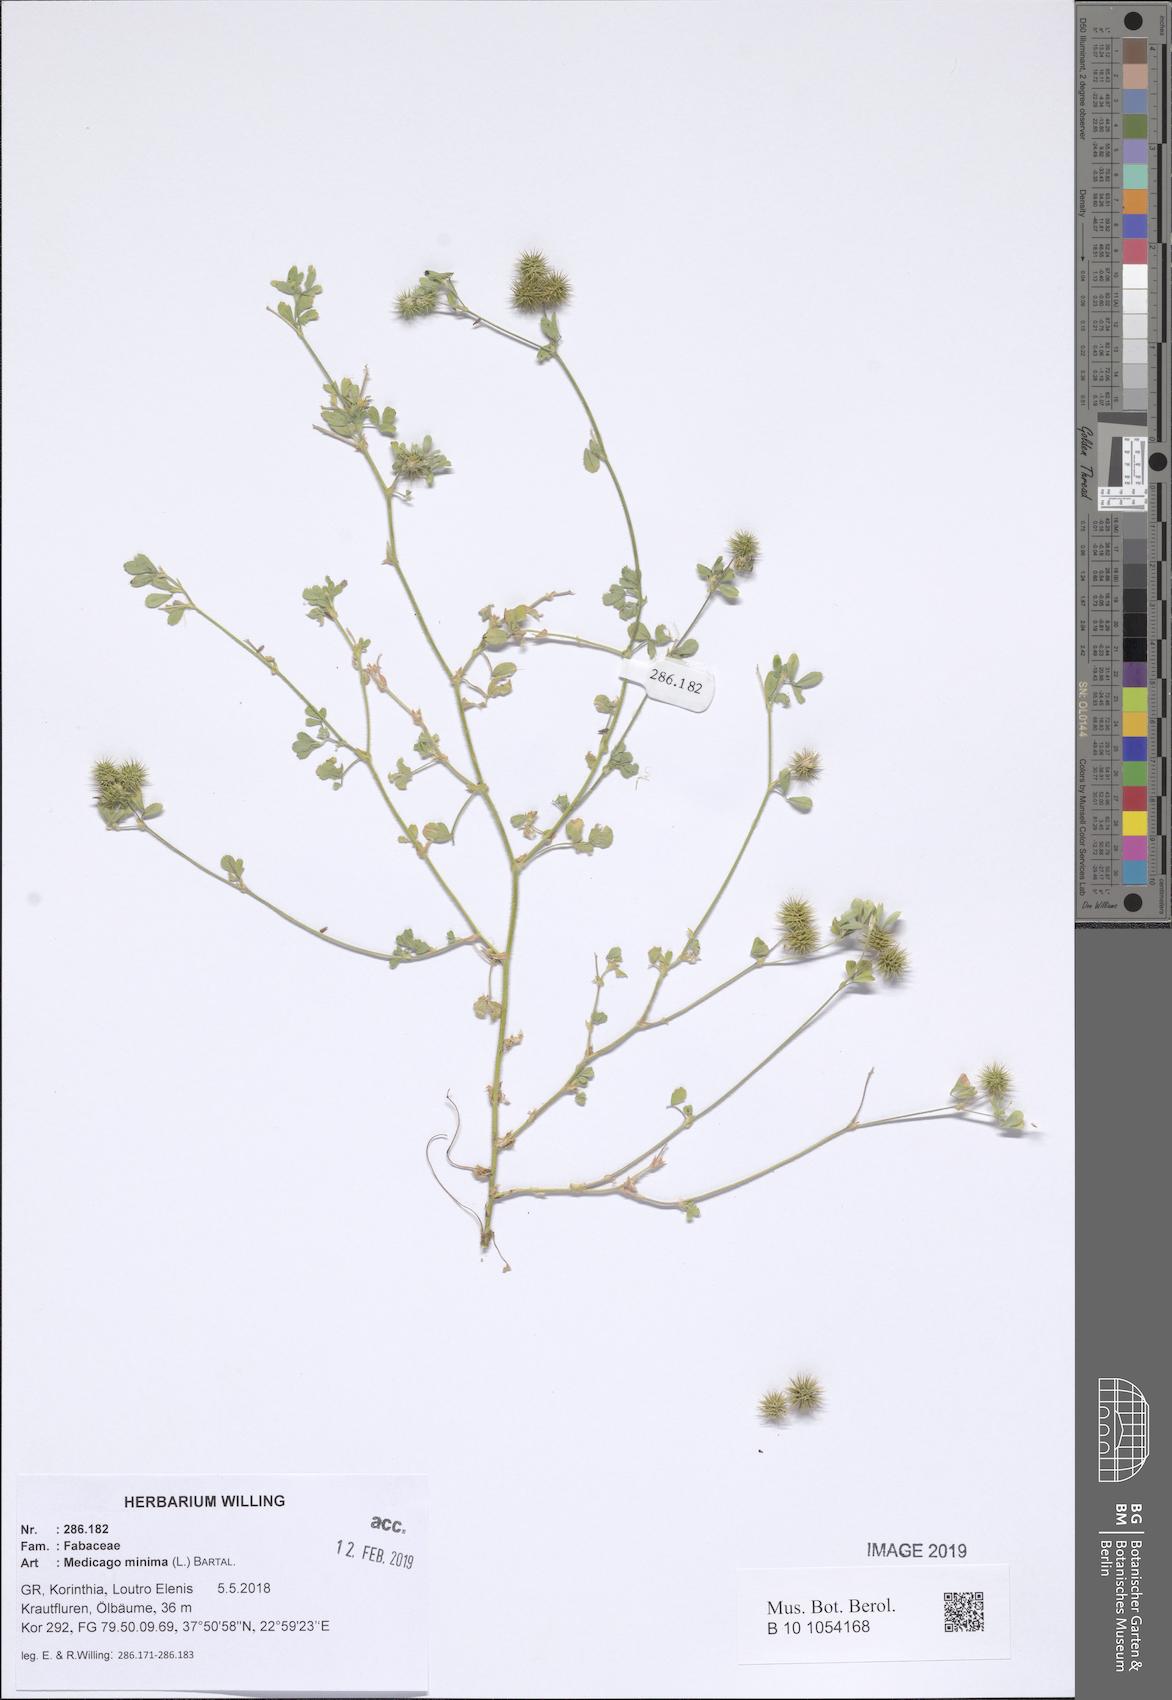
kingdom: Plantae
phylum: Tracheophyta
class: Magnoliopsida
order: Fabales
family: Fabaceae
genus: Medicago
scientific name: Medicago minima
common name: Little bur-clover
